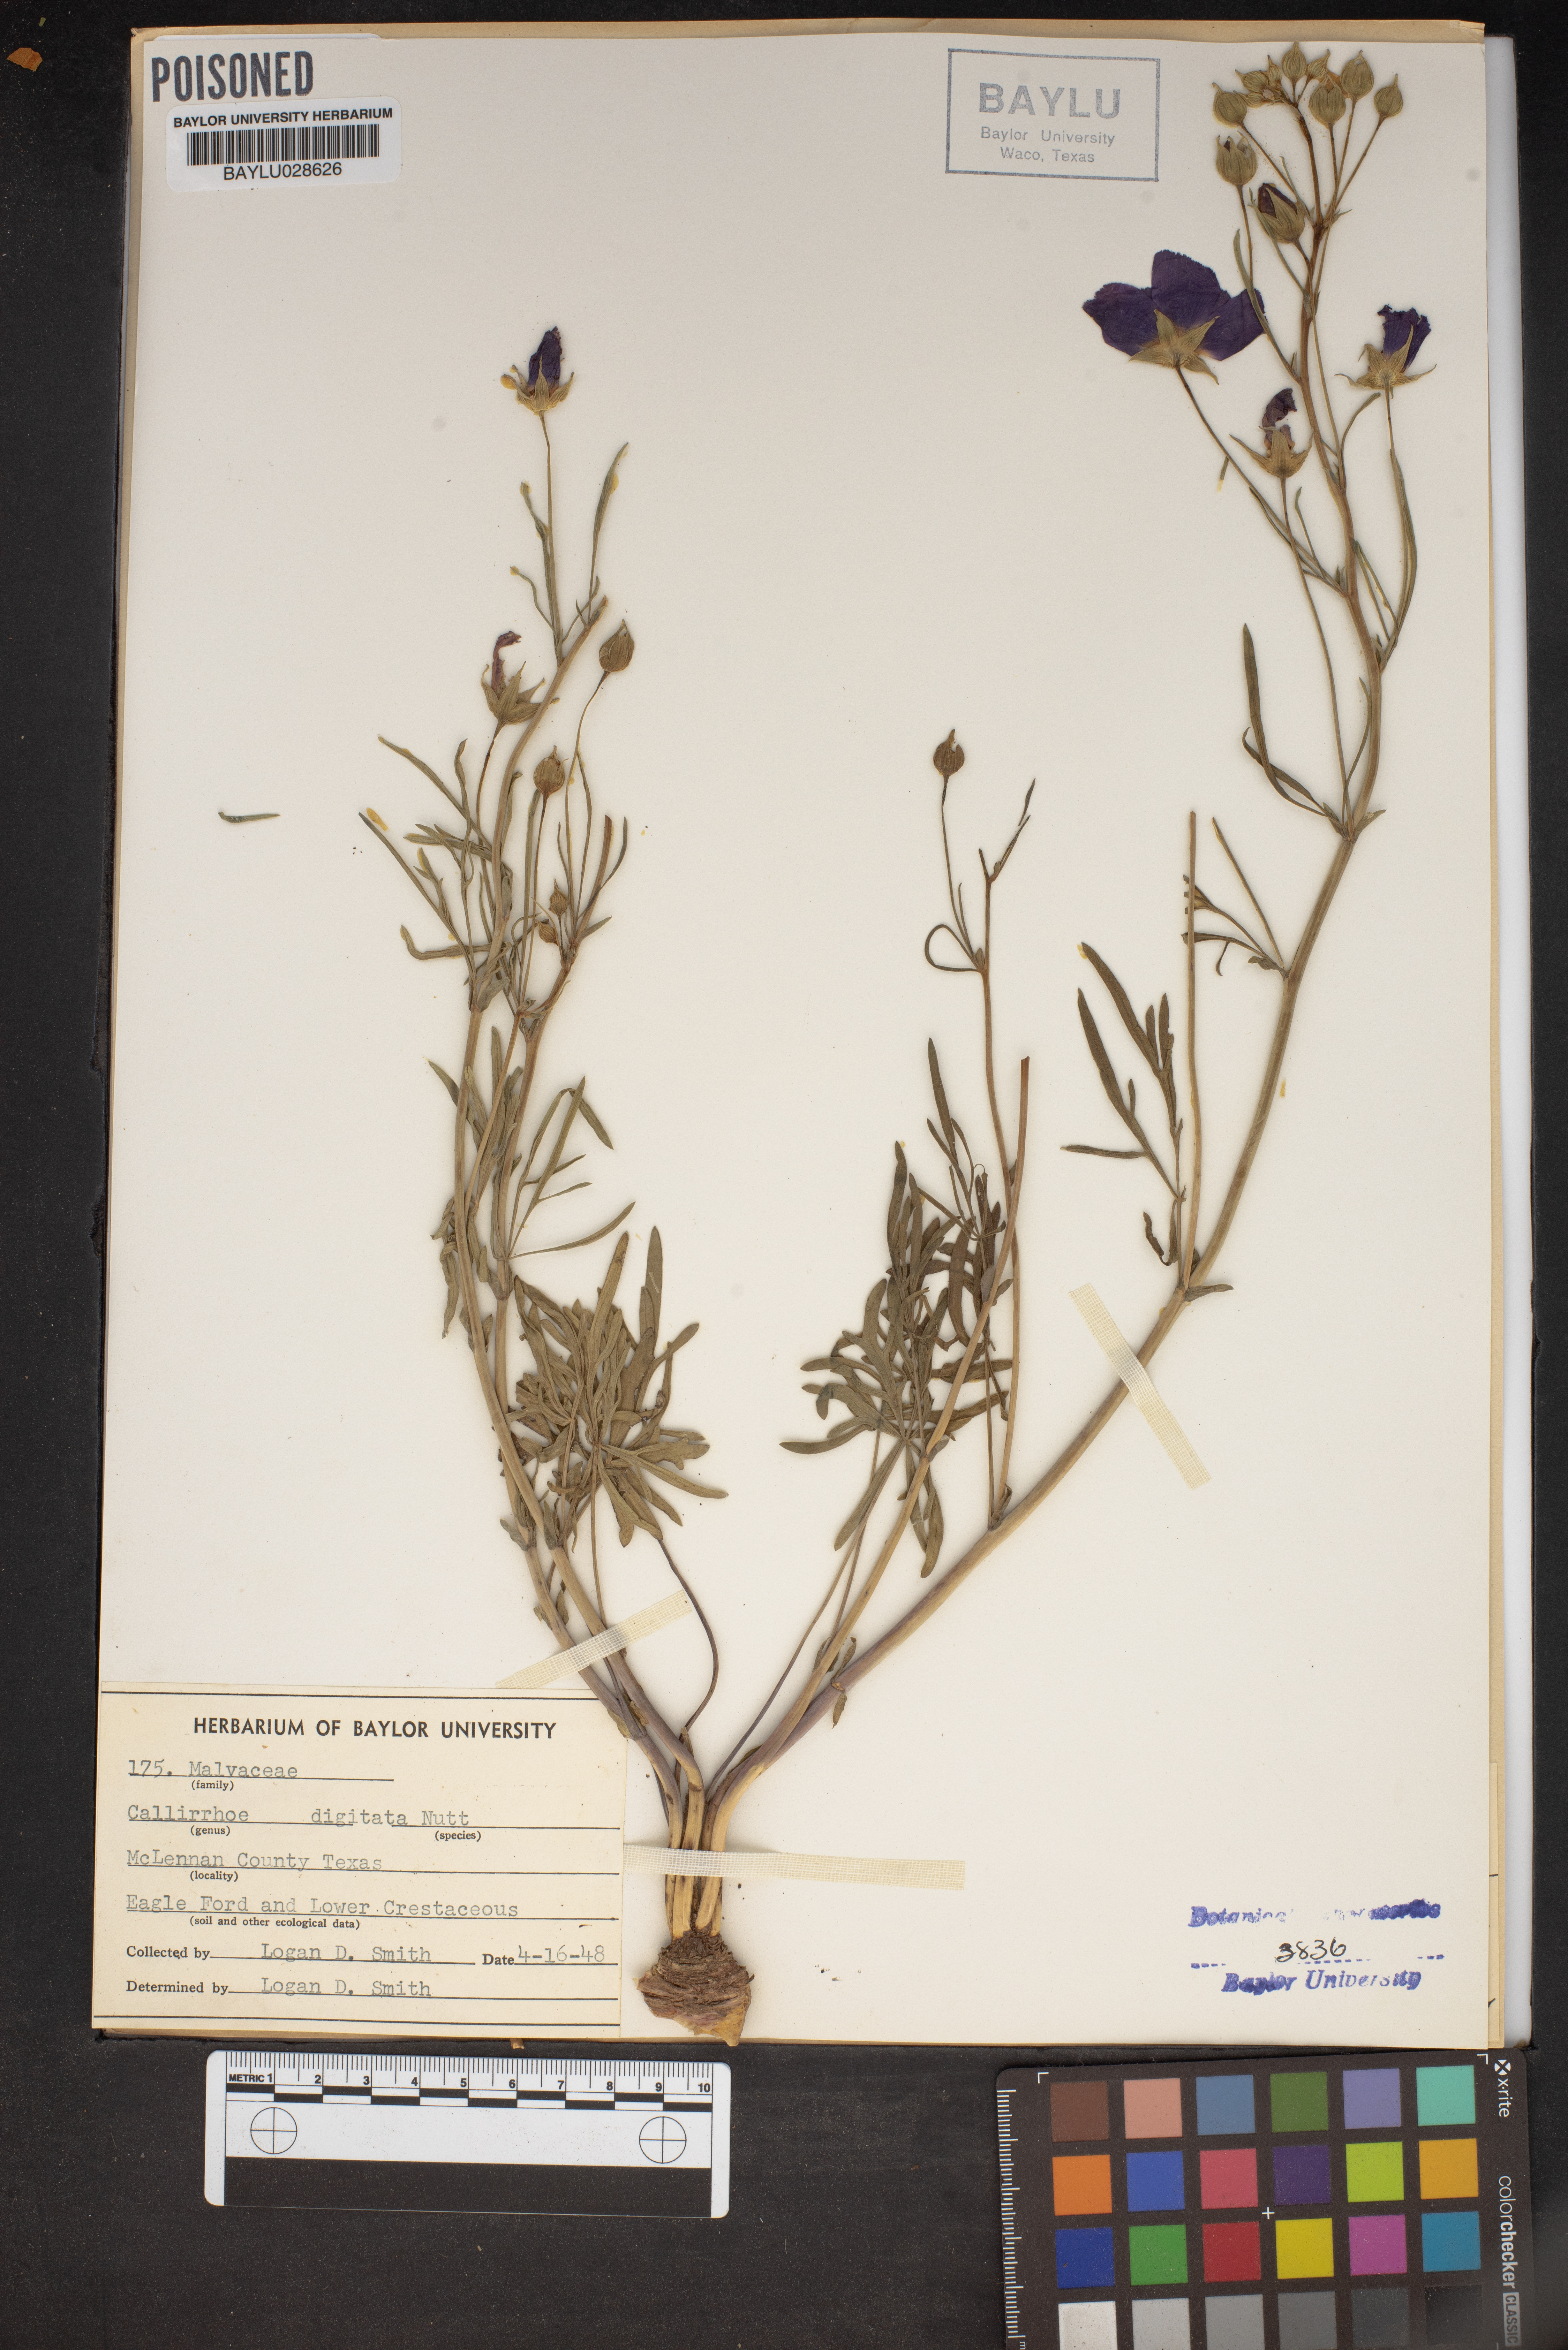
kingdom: Plantae
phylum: Tracheophyta
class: Magnoliopsida
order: Malvales
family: Malvaceae
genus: Callirhoe
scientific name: Callirhoe digitata
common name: Finger poppy-mallow
